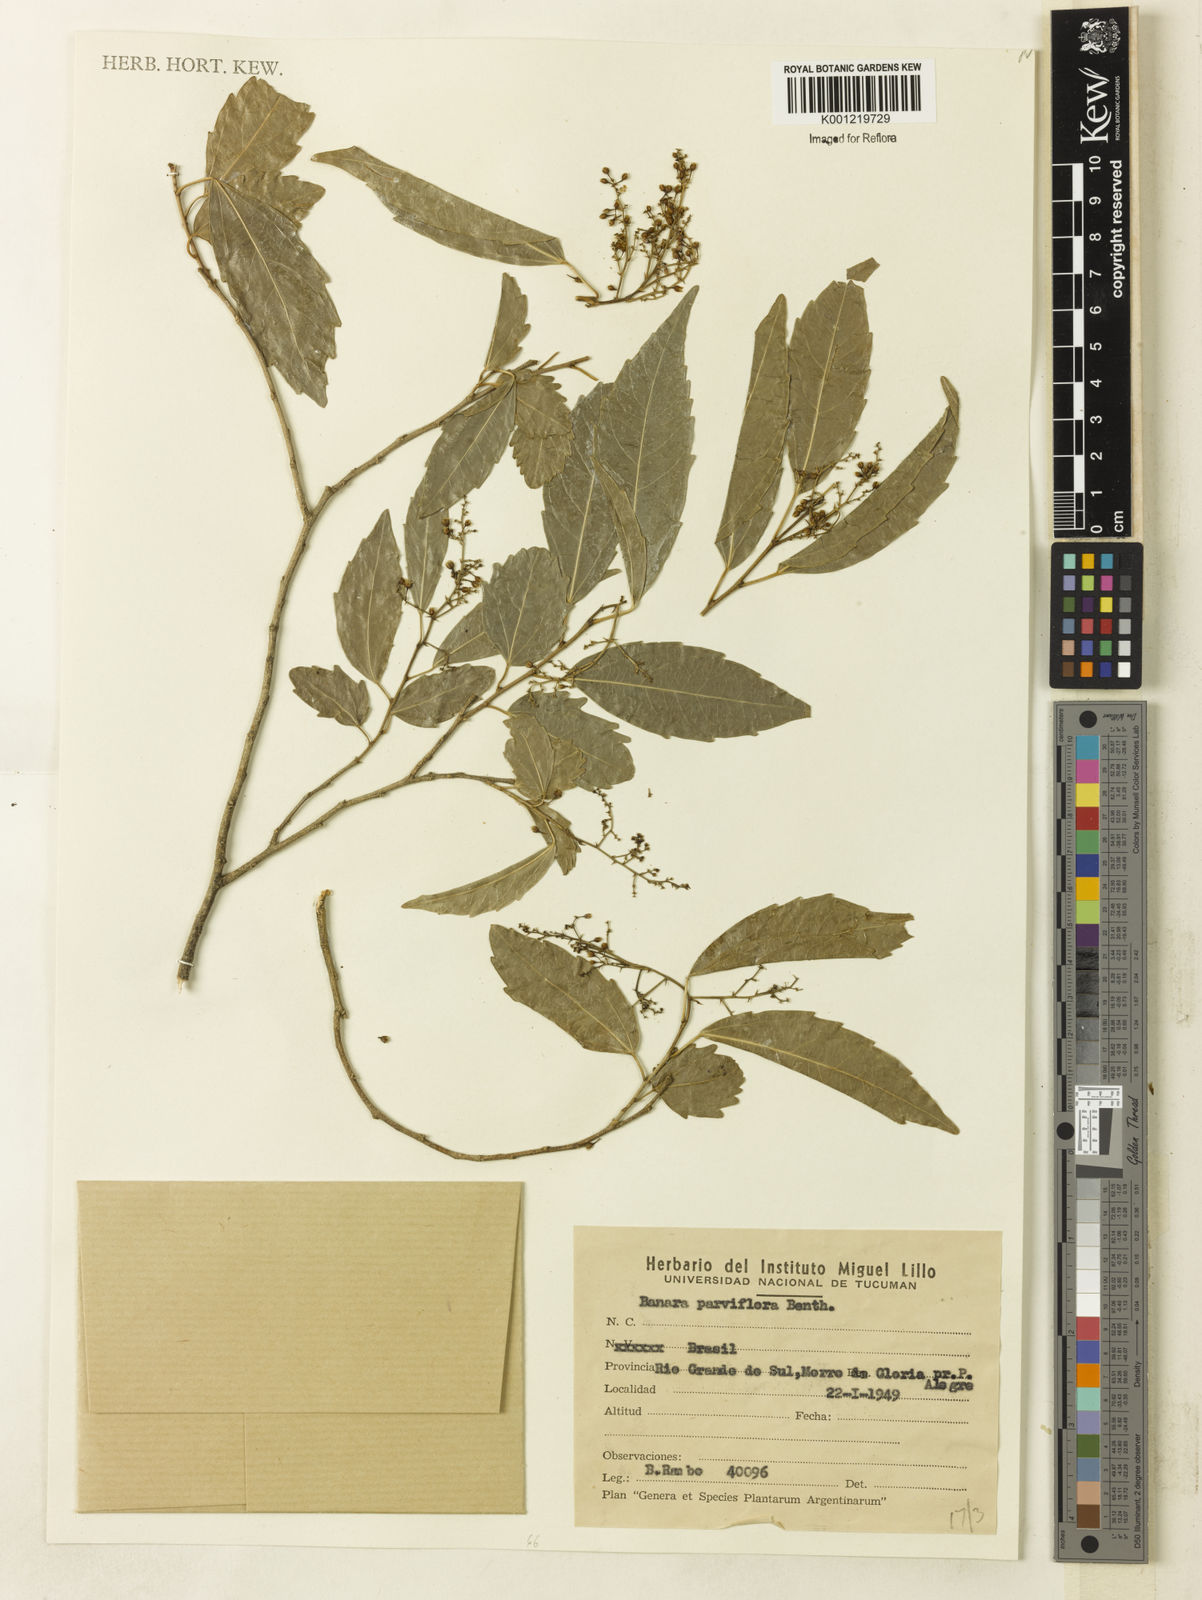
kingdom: Plantae
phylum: Tracheophyta
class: Magnoliopsida
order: Malpighiales
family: Salicaceae
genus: Banara
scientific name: Banara parviflora
